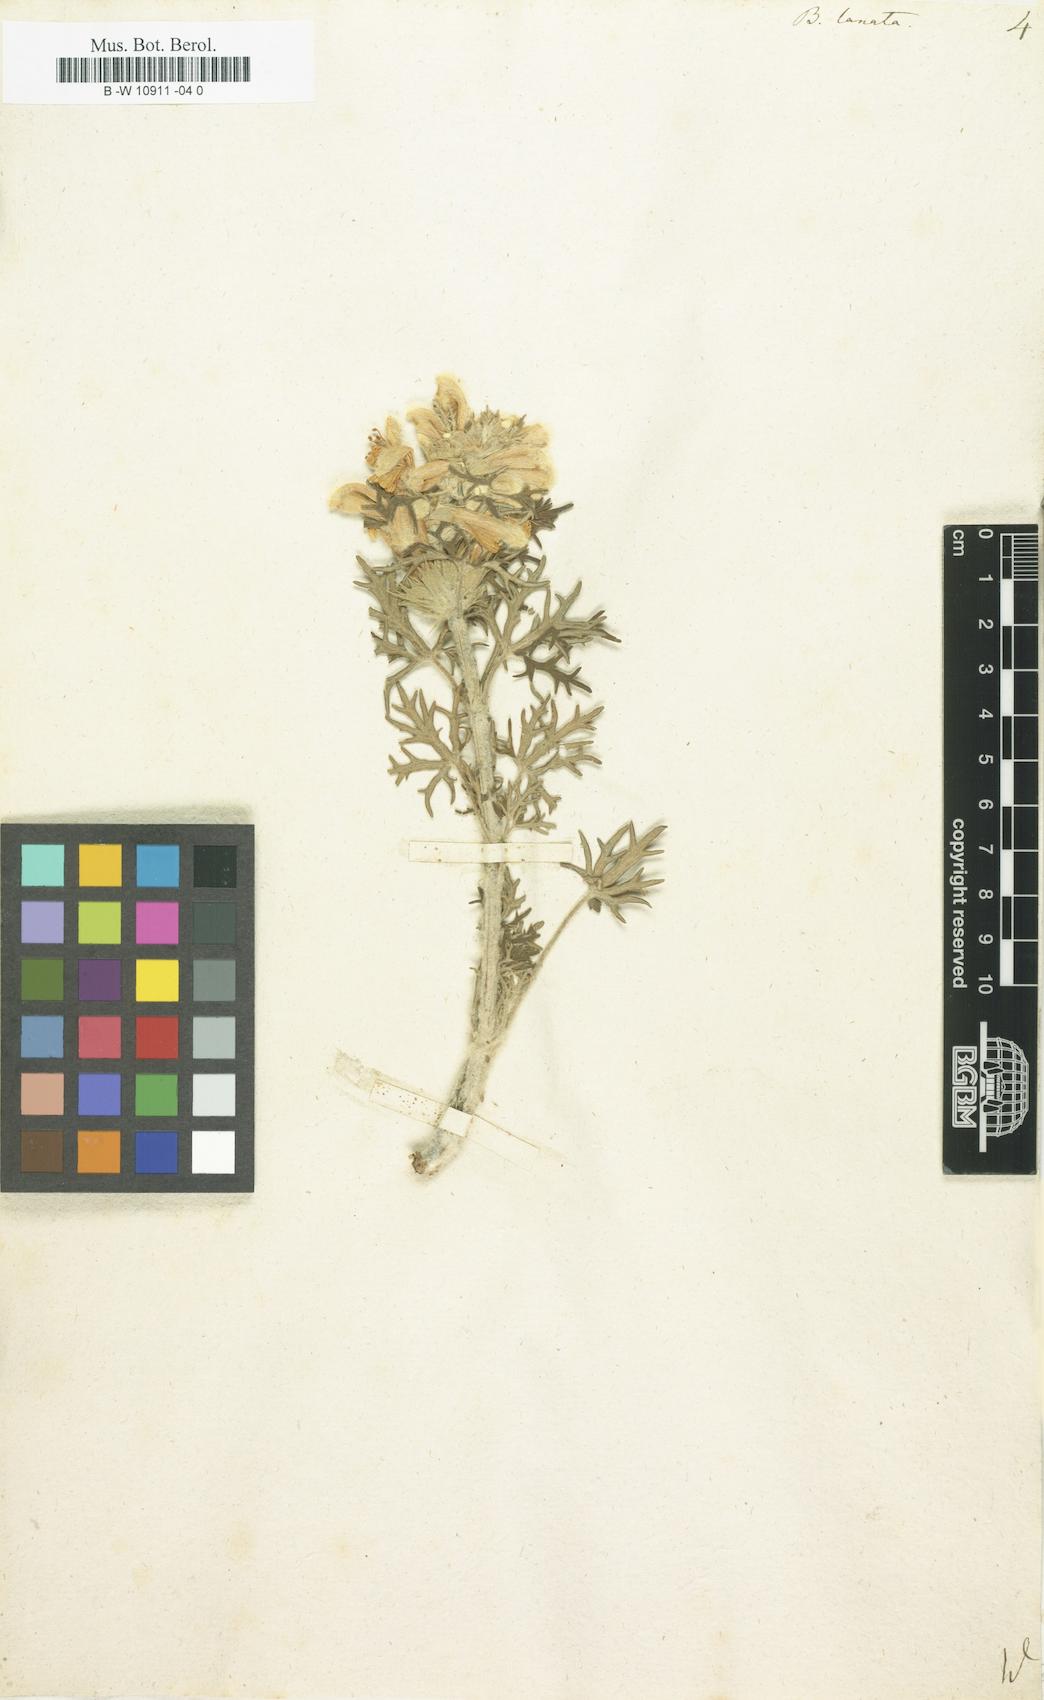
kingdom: Plantae
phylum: Tracheophyta
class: Magnoliopsida
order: Lamiales
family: Lamiaceae
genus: Ballota
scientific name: Ballota lanata
